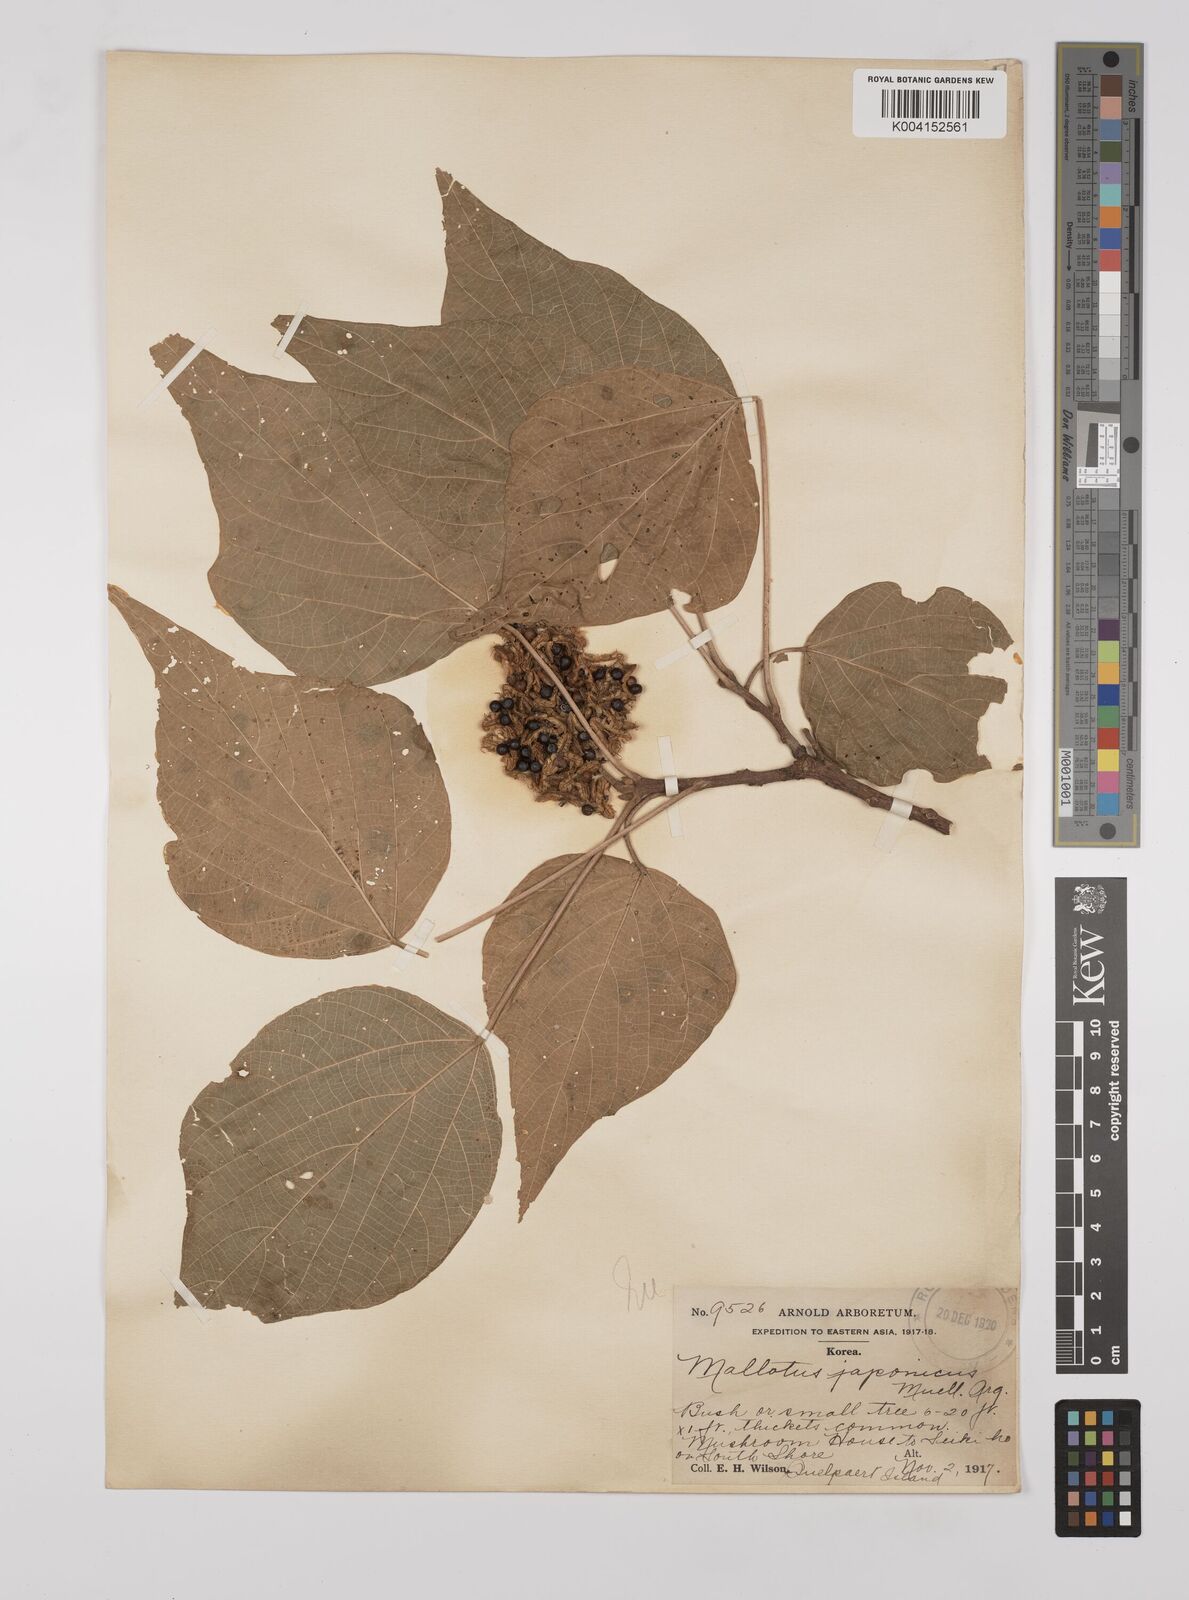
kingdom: Plantae
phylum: Tracheophyta
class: Magnoliopsida
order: Malpighiales
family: Euphorbiaceae
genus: Mallotus
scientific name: Mallotus japonicus
